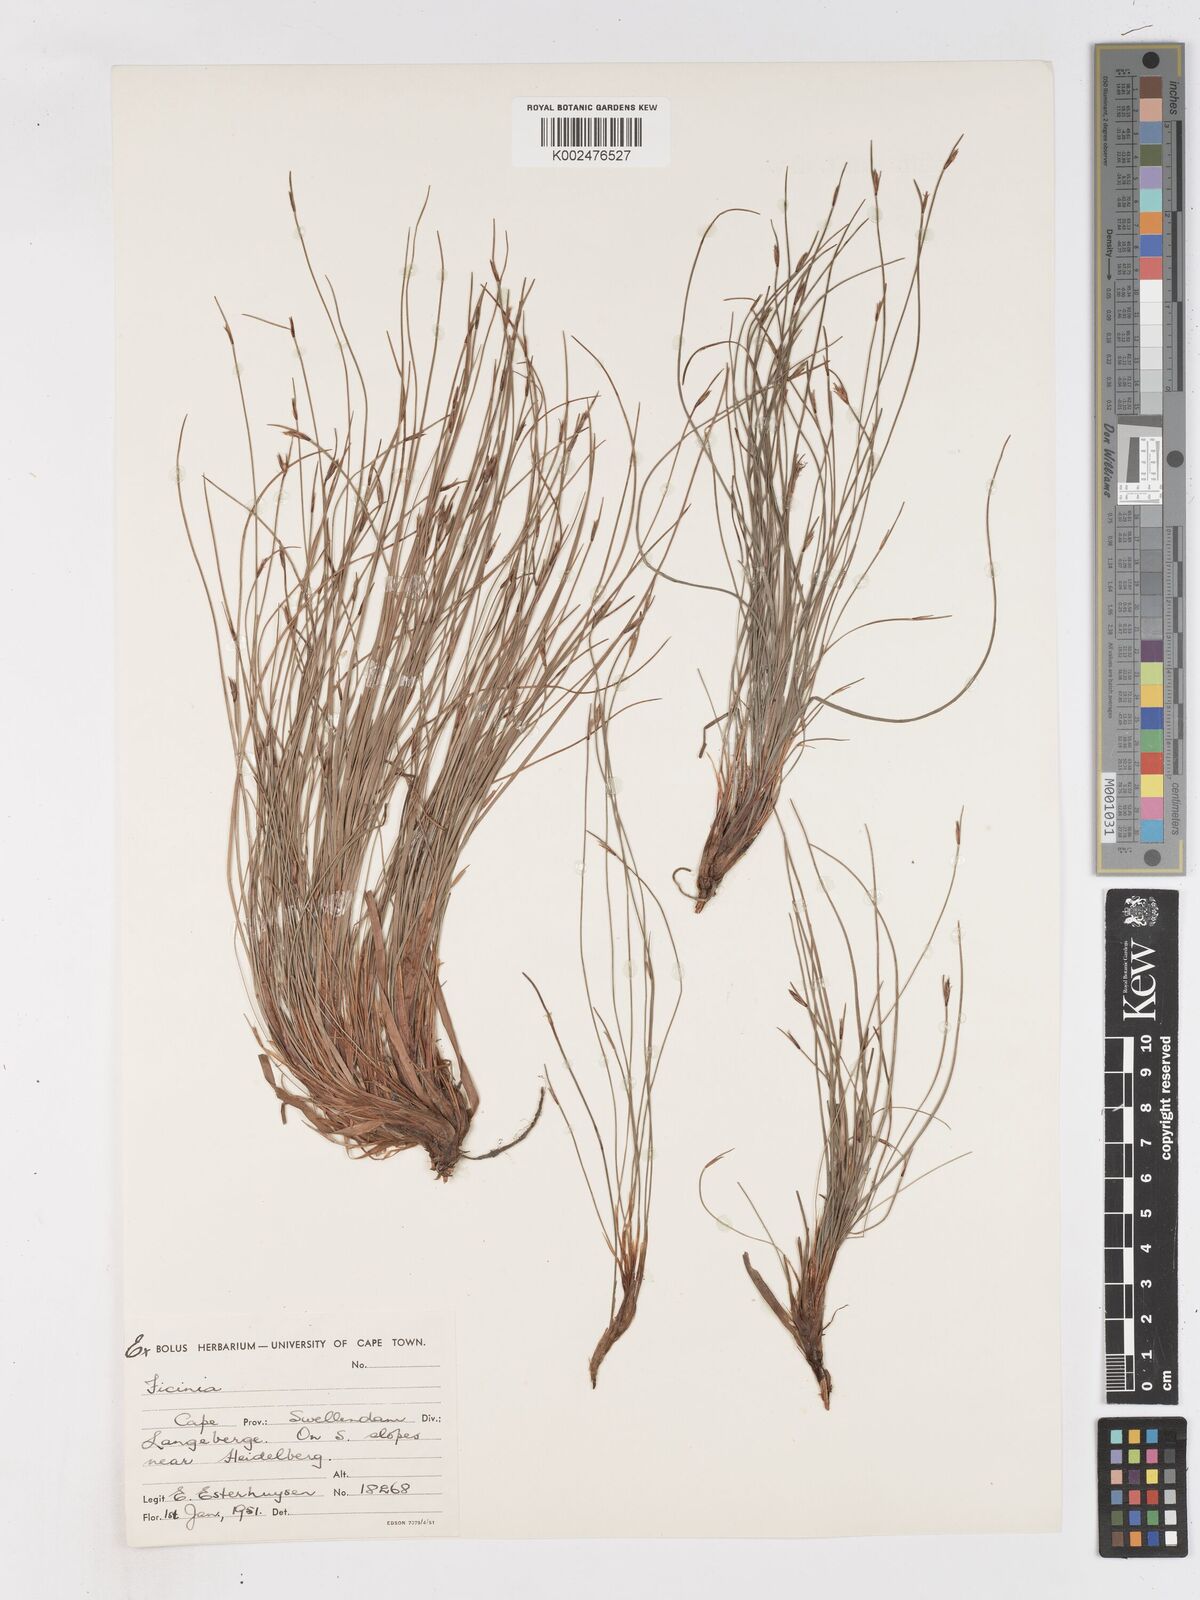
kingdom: Plantae
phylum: Tracheophyta
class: Liliopsida
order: Poales
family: Cyperaceae
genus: Ficinia
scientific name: Ficinia acuminata
